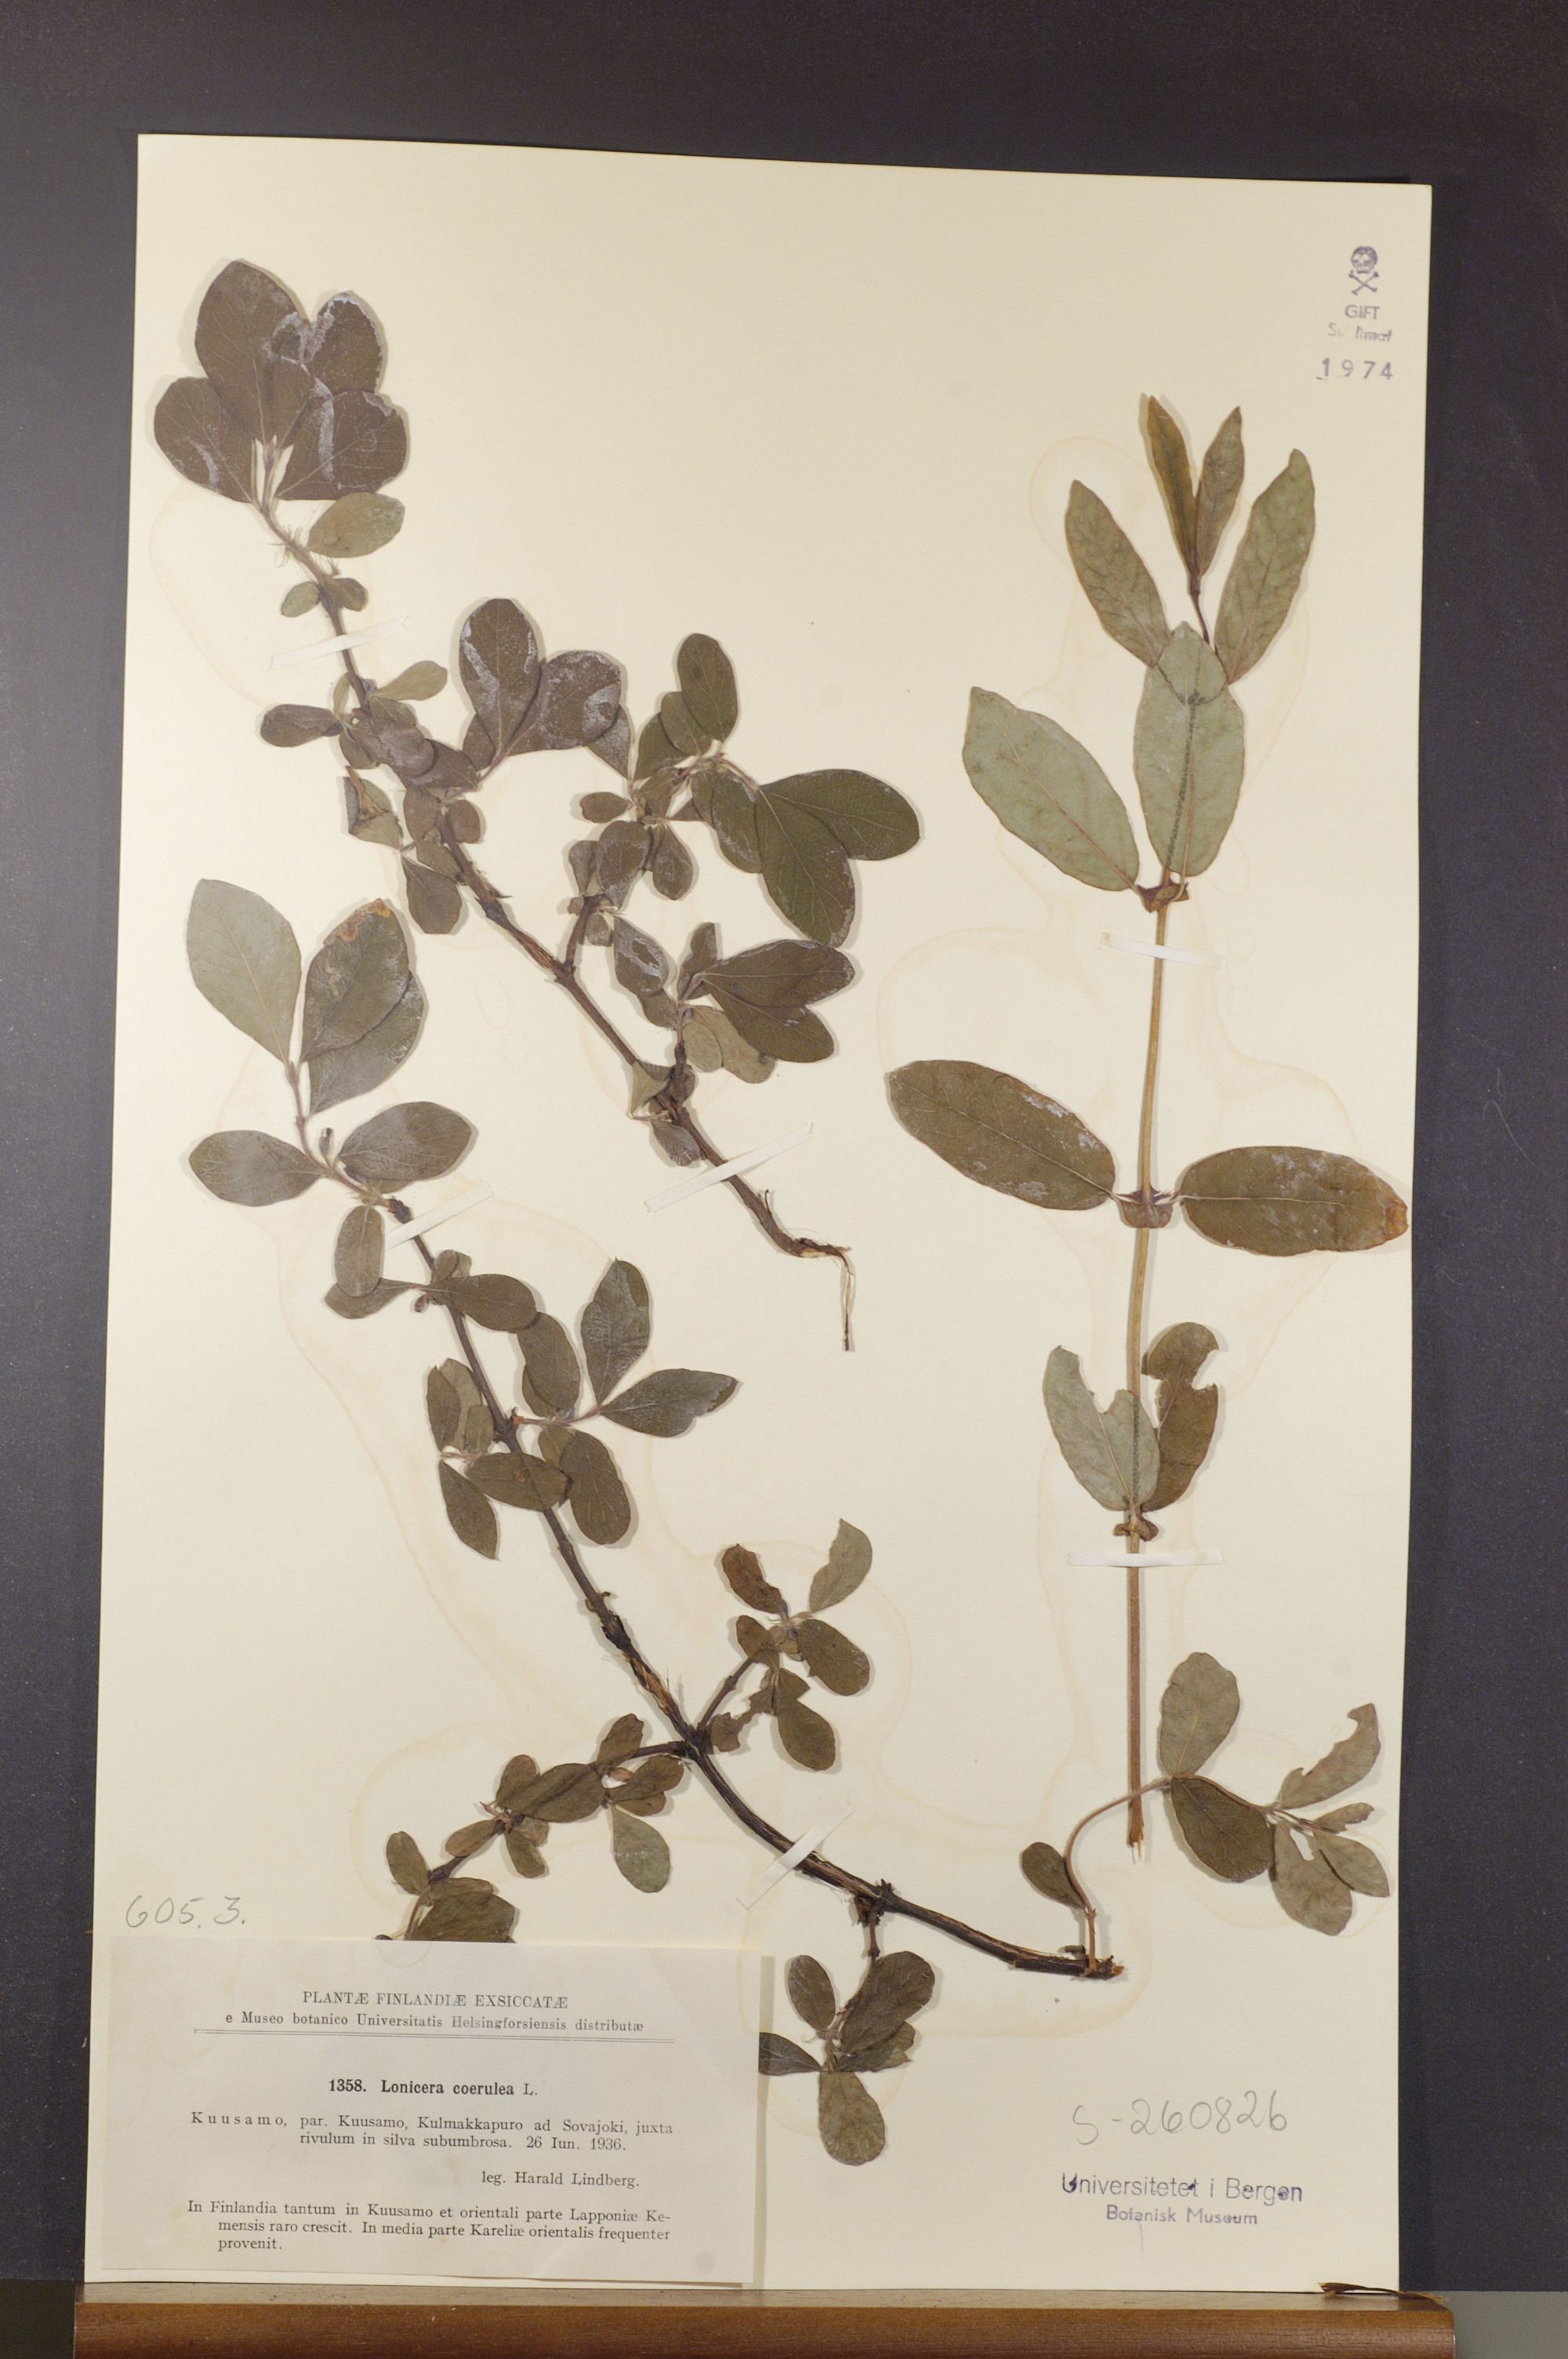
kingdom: Plantae
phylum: Tracheophyta
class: Magnoliopsida
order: Dipsacales
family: Caprifoliaceae
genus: Lonicera
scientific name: Lonicera caerulea
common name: Blue honeysuckle
